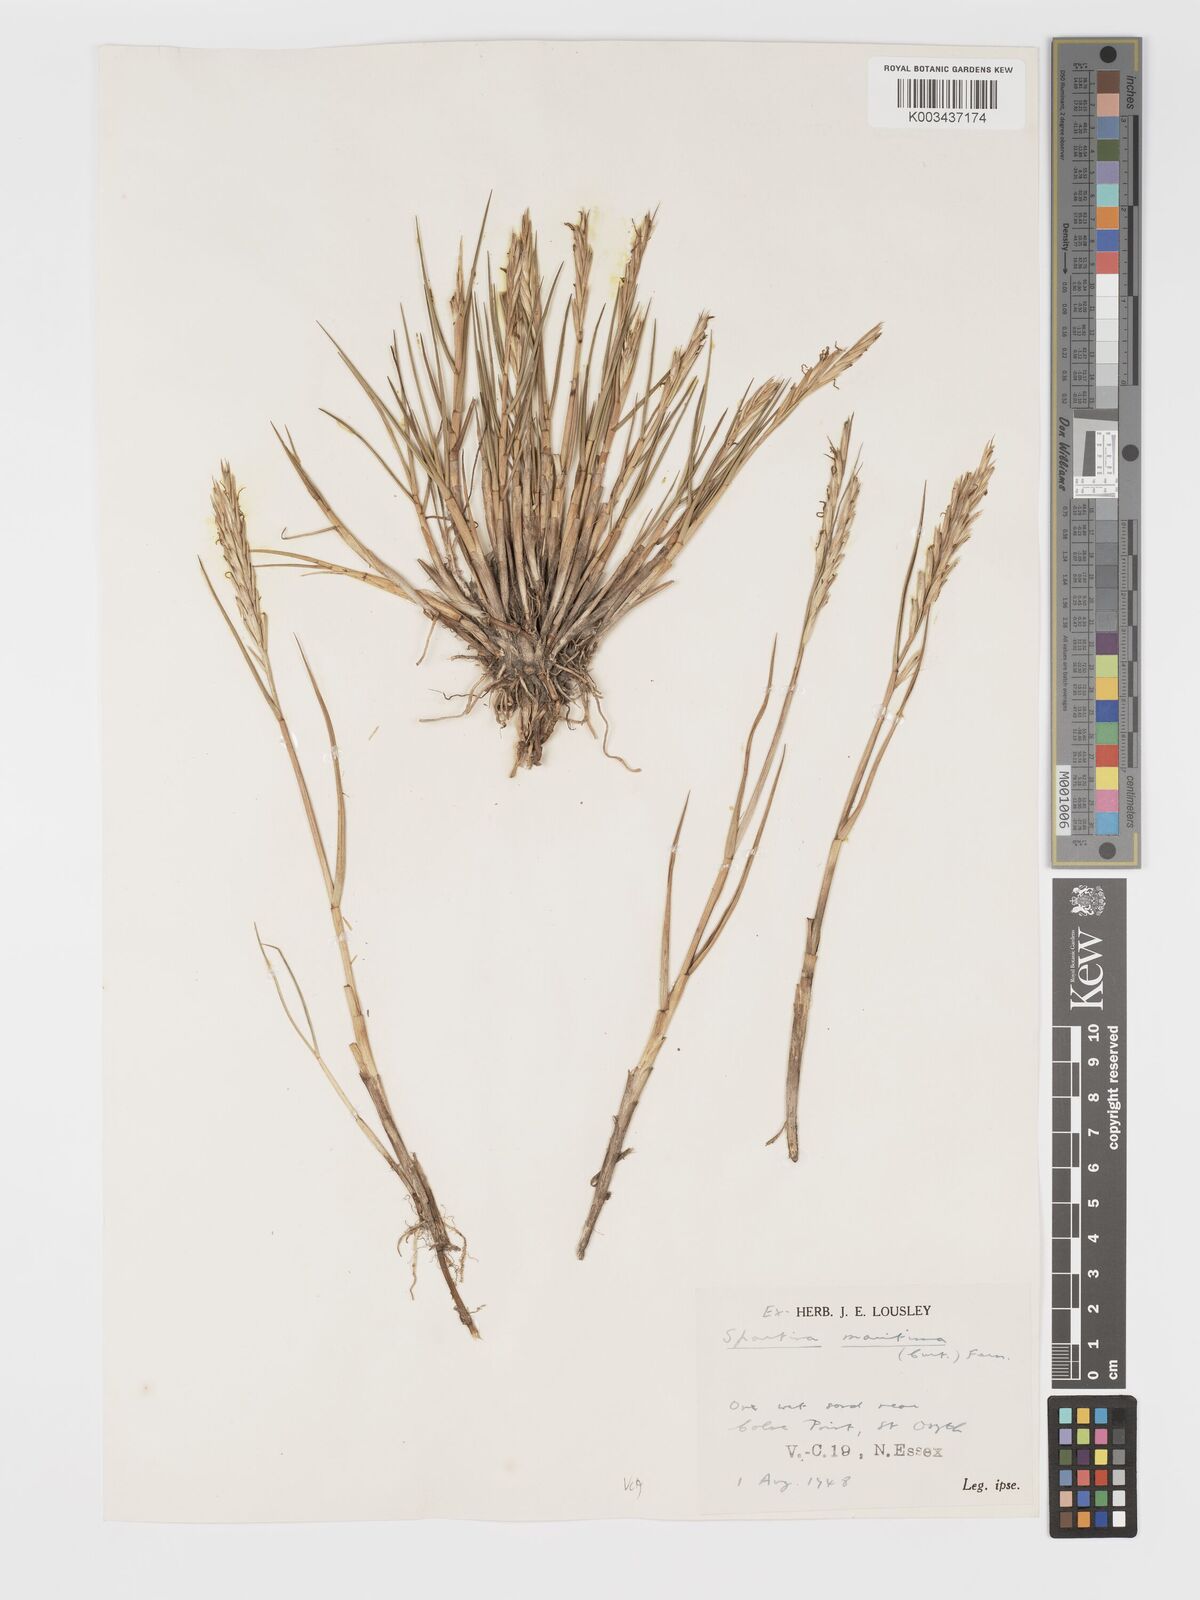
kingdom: Plantae
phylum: Tracheophyta
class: Liliopsida
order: Poales
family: Poaceae
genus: Sporobolus
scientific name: Sporobolus maritimus
